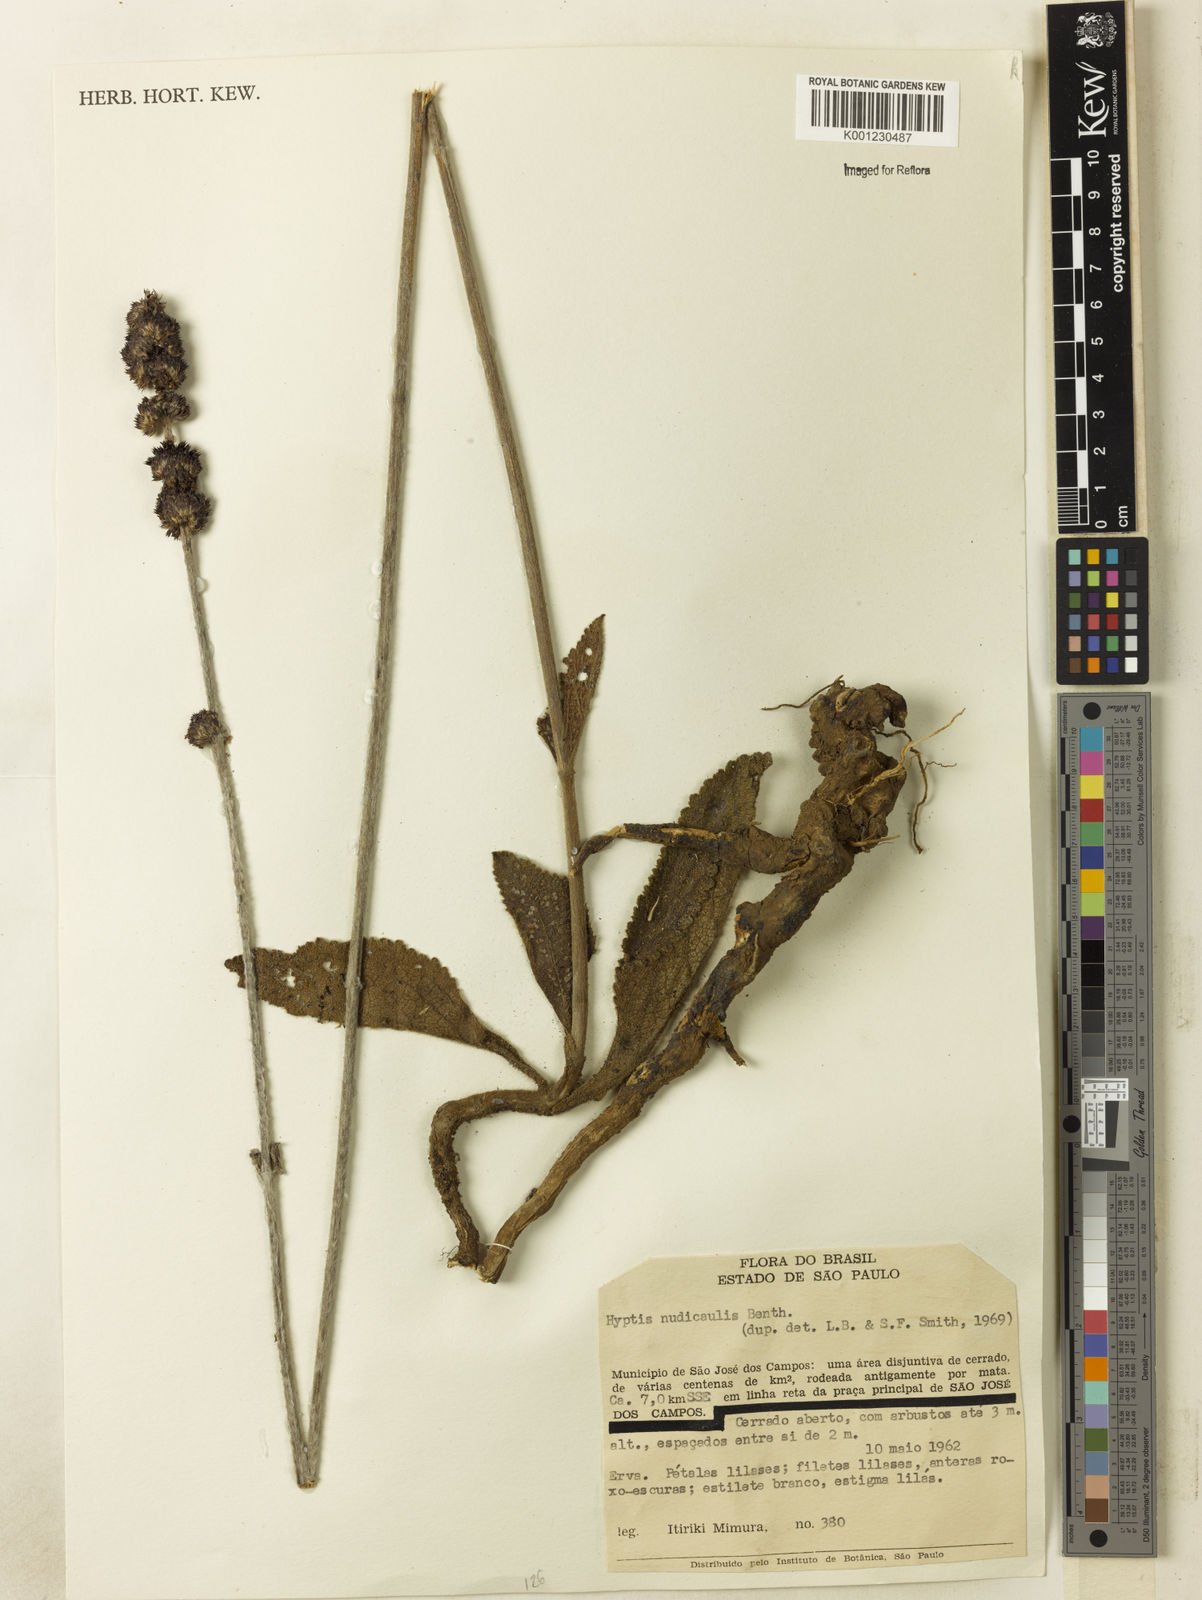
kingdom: Plantae
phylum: Tracheophyta
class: Magnoliopsida
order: Lamiales
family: Lamiaceae
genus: Hyptis
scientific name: Hyptis nudicaulis
